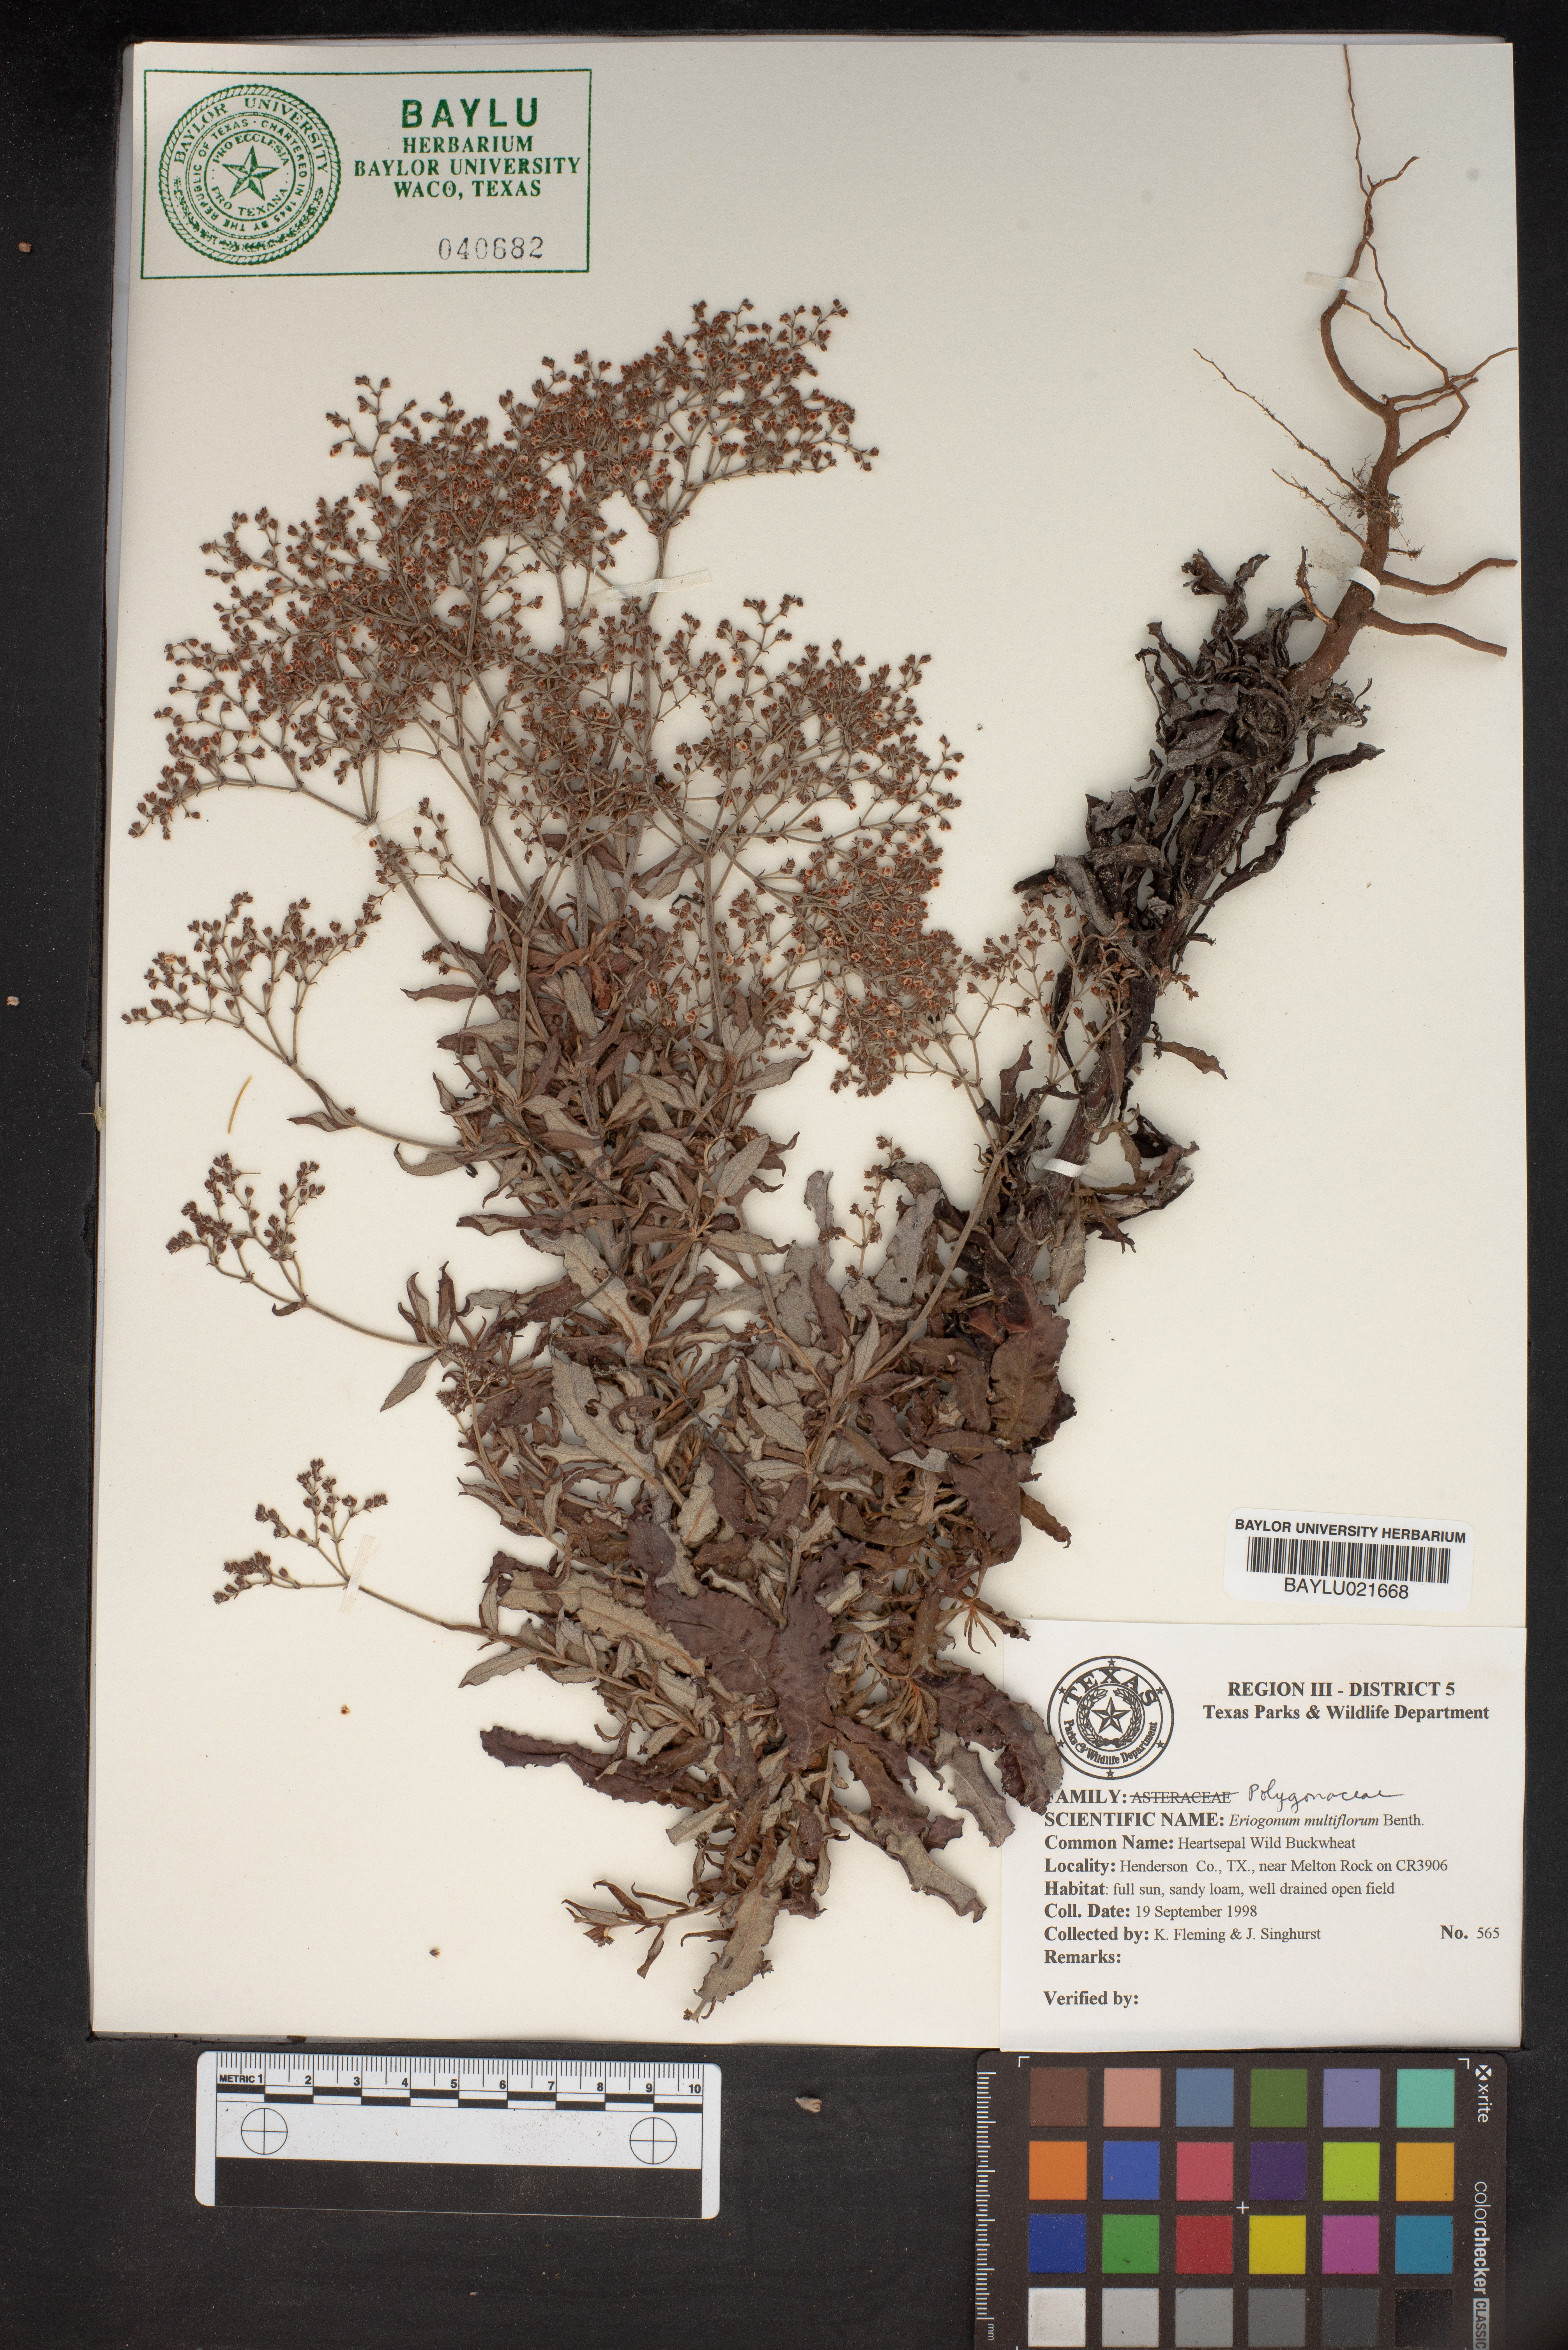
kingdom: Plantae
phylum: Tracheophyta
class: Magnoliopsida
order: Caryophyllales
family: Polygonaceae
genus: Eriogonum
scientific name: Eriogonum multiflorum
